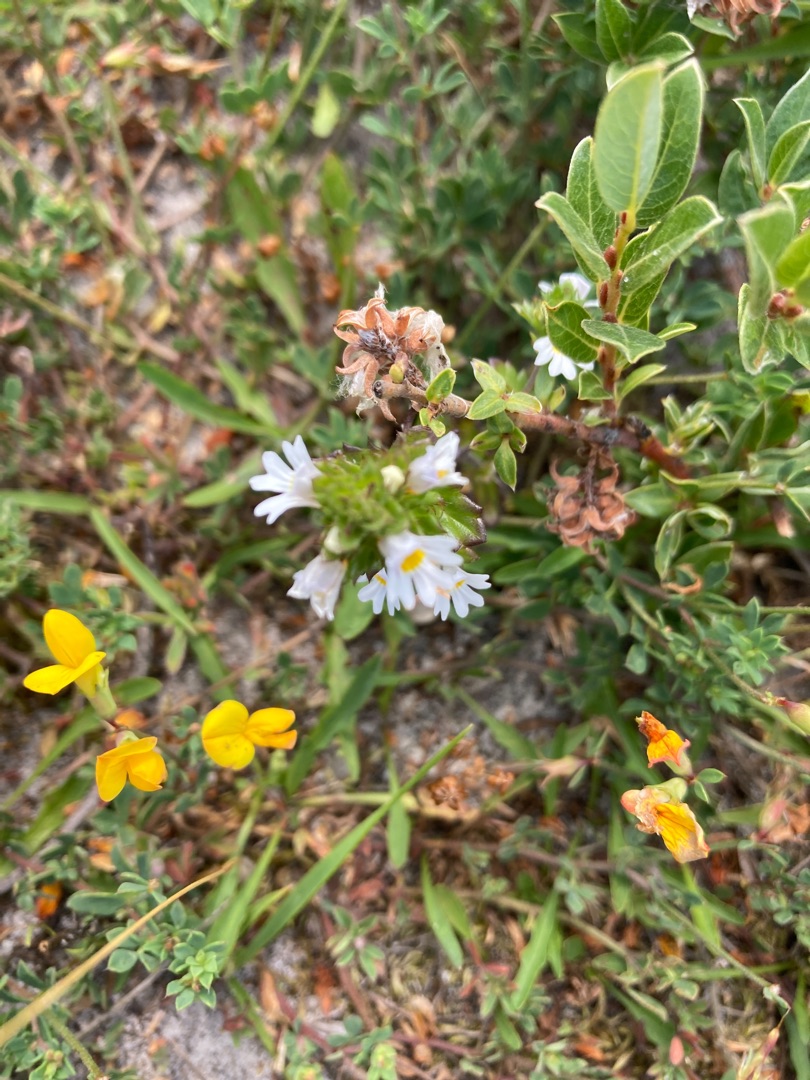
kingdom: Plantae
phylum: Tracheophyta
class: Magnoliopsida
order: Lamiales
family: Orobanchaceae
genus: Euphrasia
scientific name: Euphrasia stricta
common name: Spids øjentrøst
